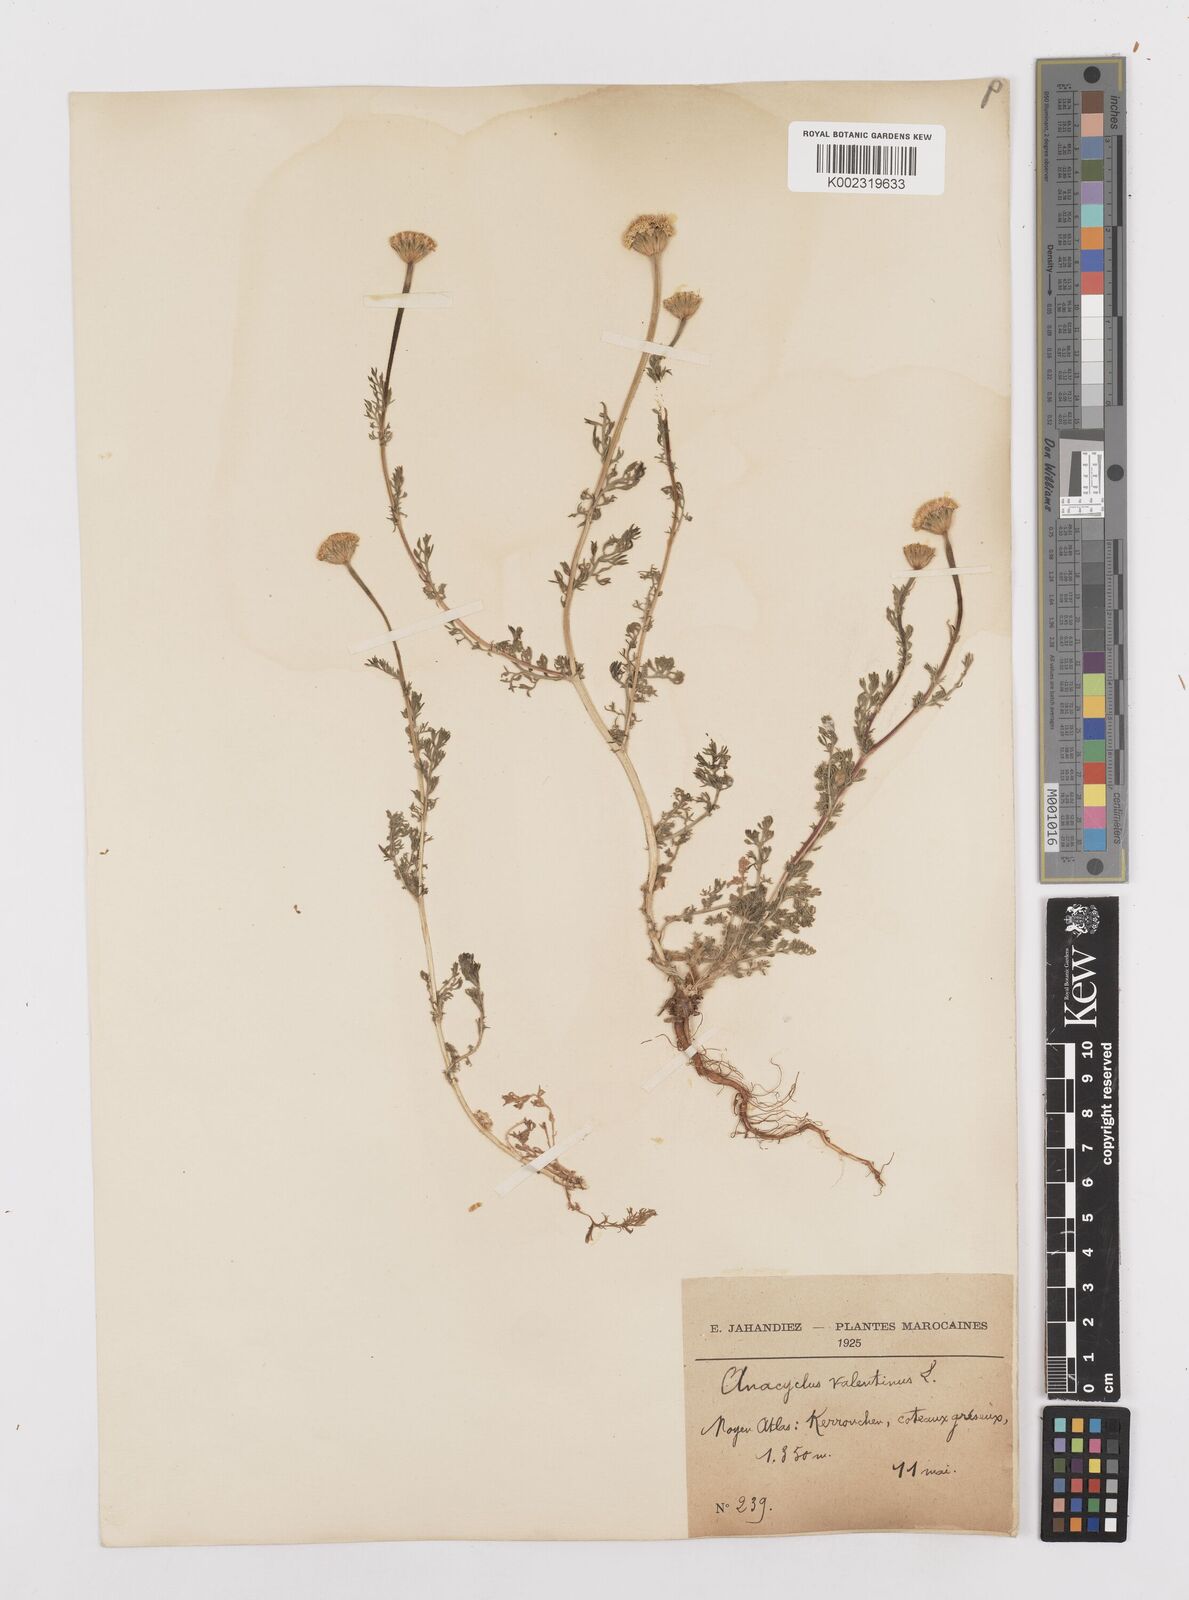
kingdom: Plantae
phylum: Tracheophyta
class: Magnoliopsida
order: Asterales
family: Asteraceae
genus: Anacyclus
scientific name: Anacyclus valentinus
